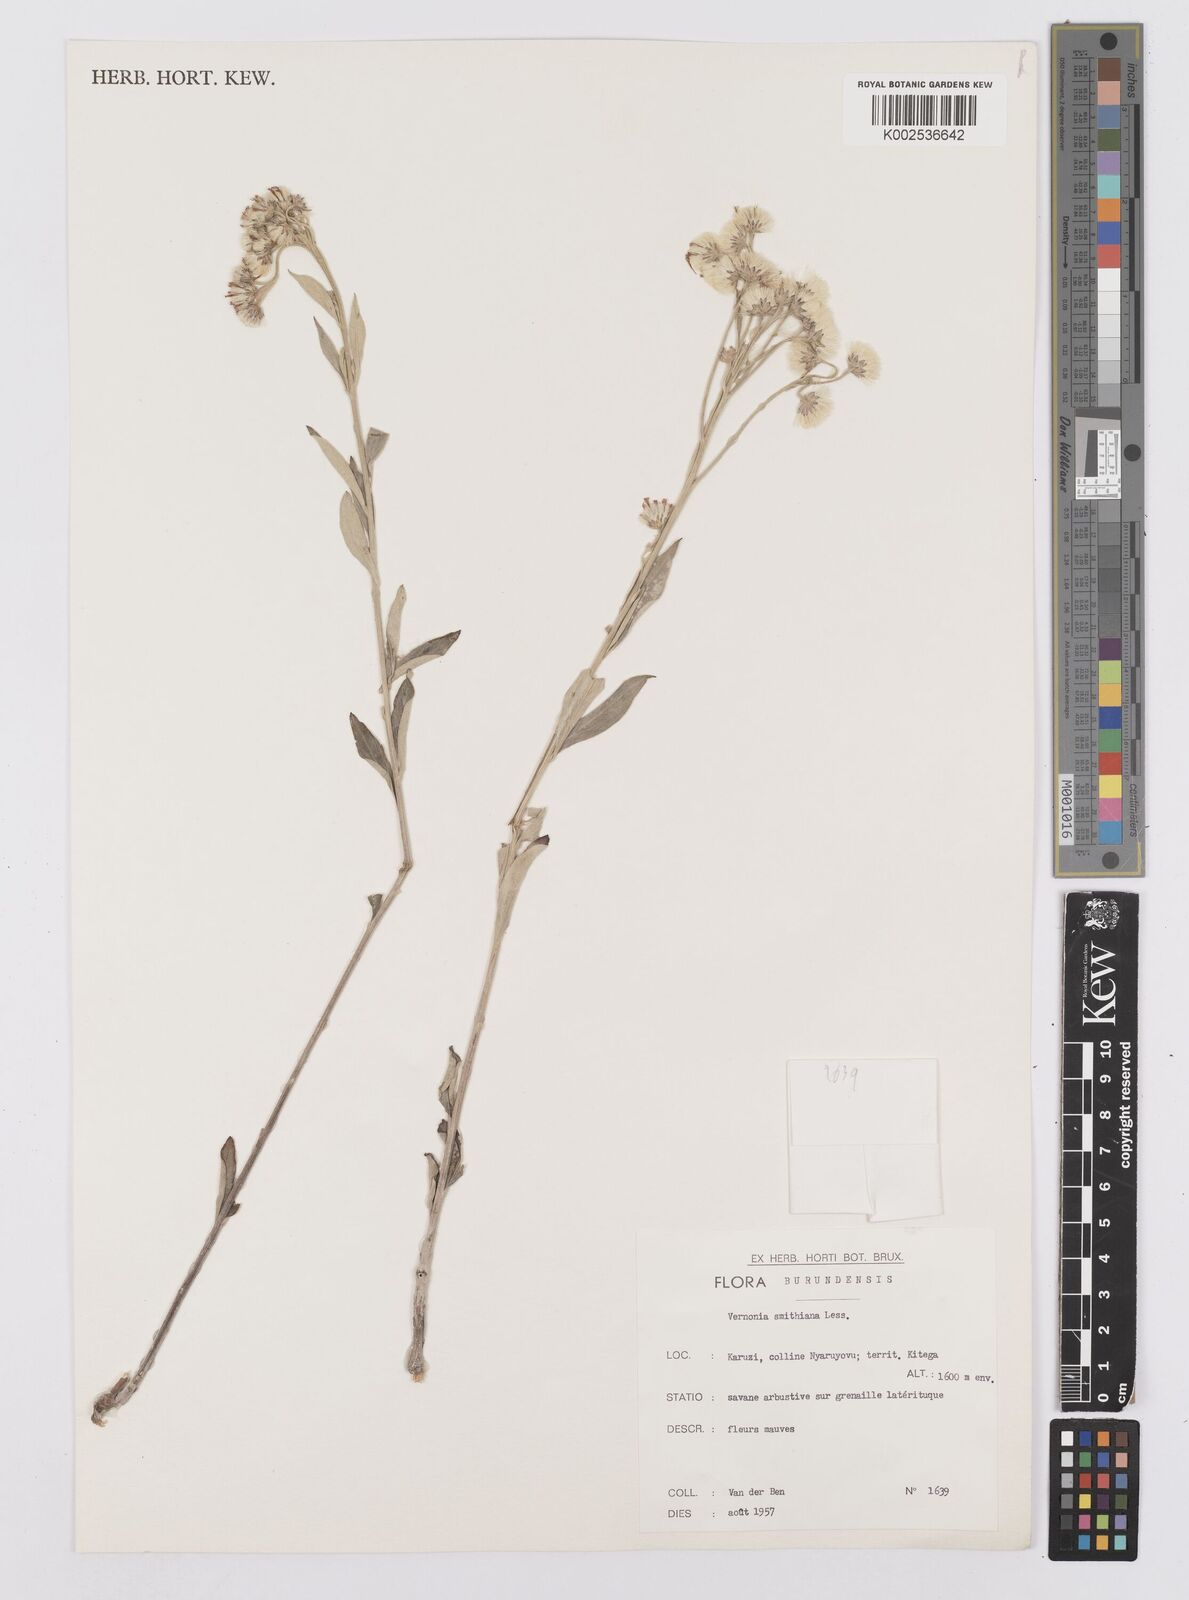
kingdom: Plantae
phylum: Tracheophyta
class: Magnoliopsida
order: Asterales
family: Asteraceae
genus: Hilliardiella
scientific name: Hilliardiella smithiana
